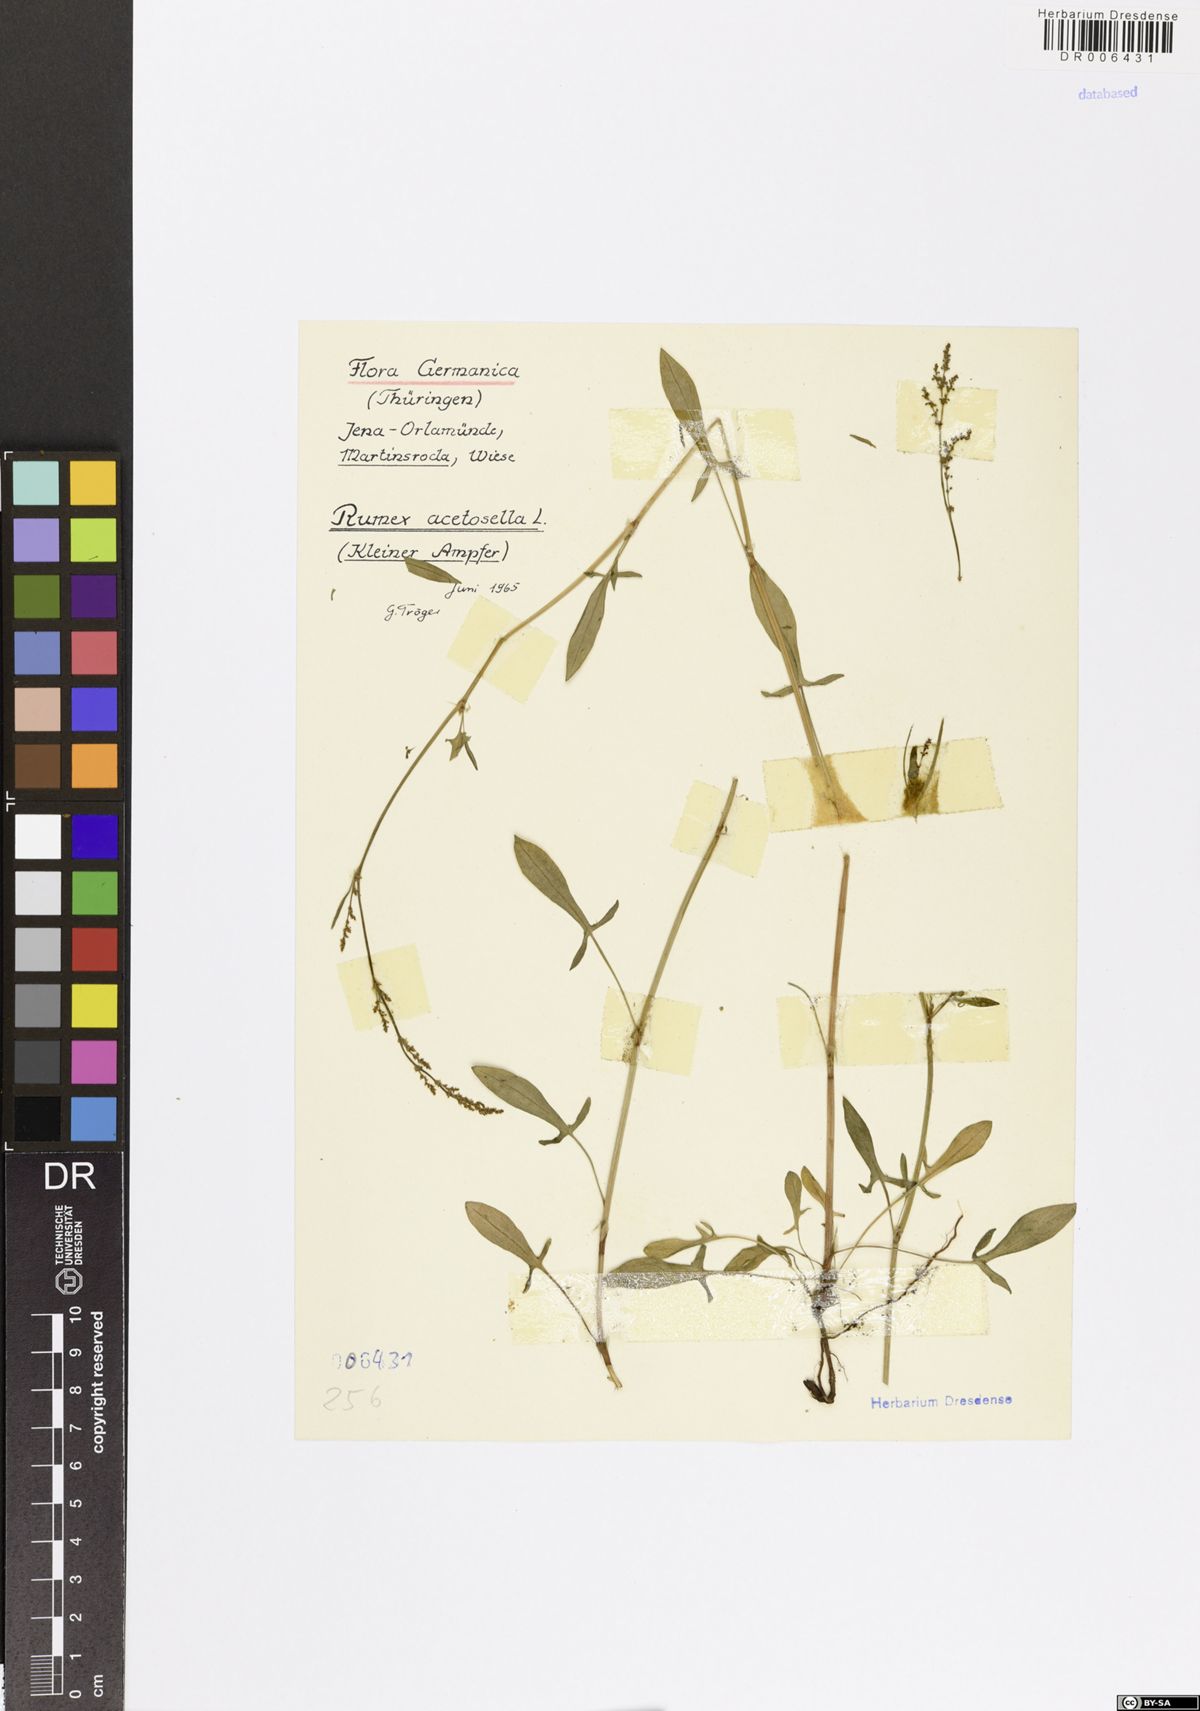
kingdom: Plantae
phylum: Tracheophyta
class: Magnoliopsida
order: Caryophyllales
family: Polygonaceae
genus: Rumex
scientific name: Rumex acetosella
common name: Common sheep sorrel
